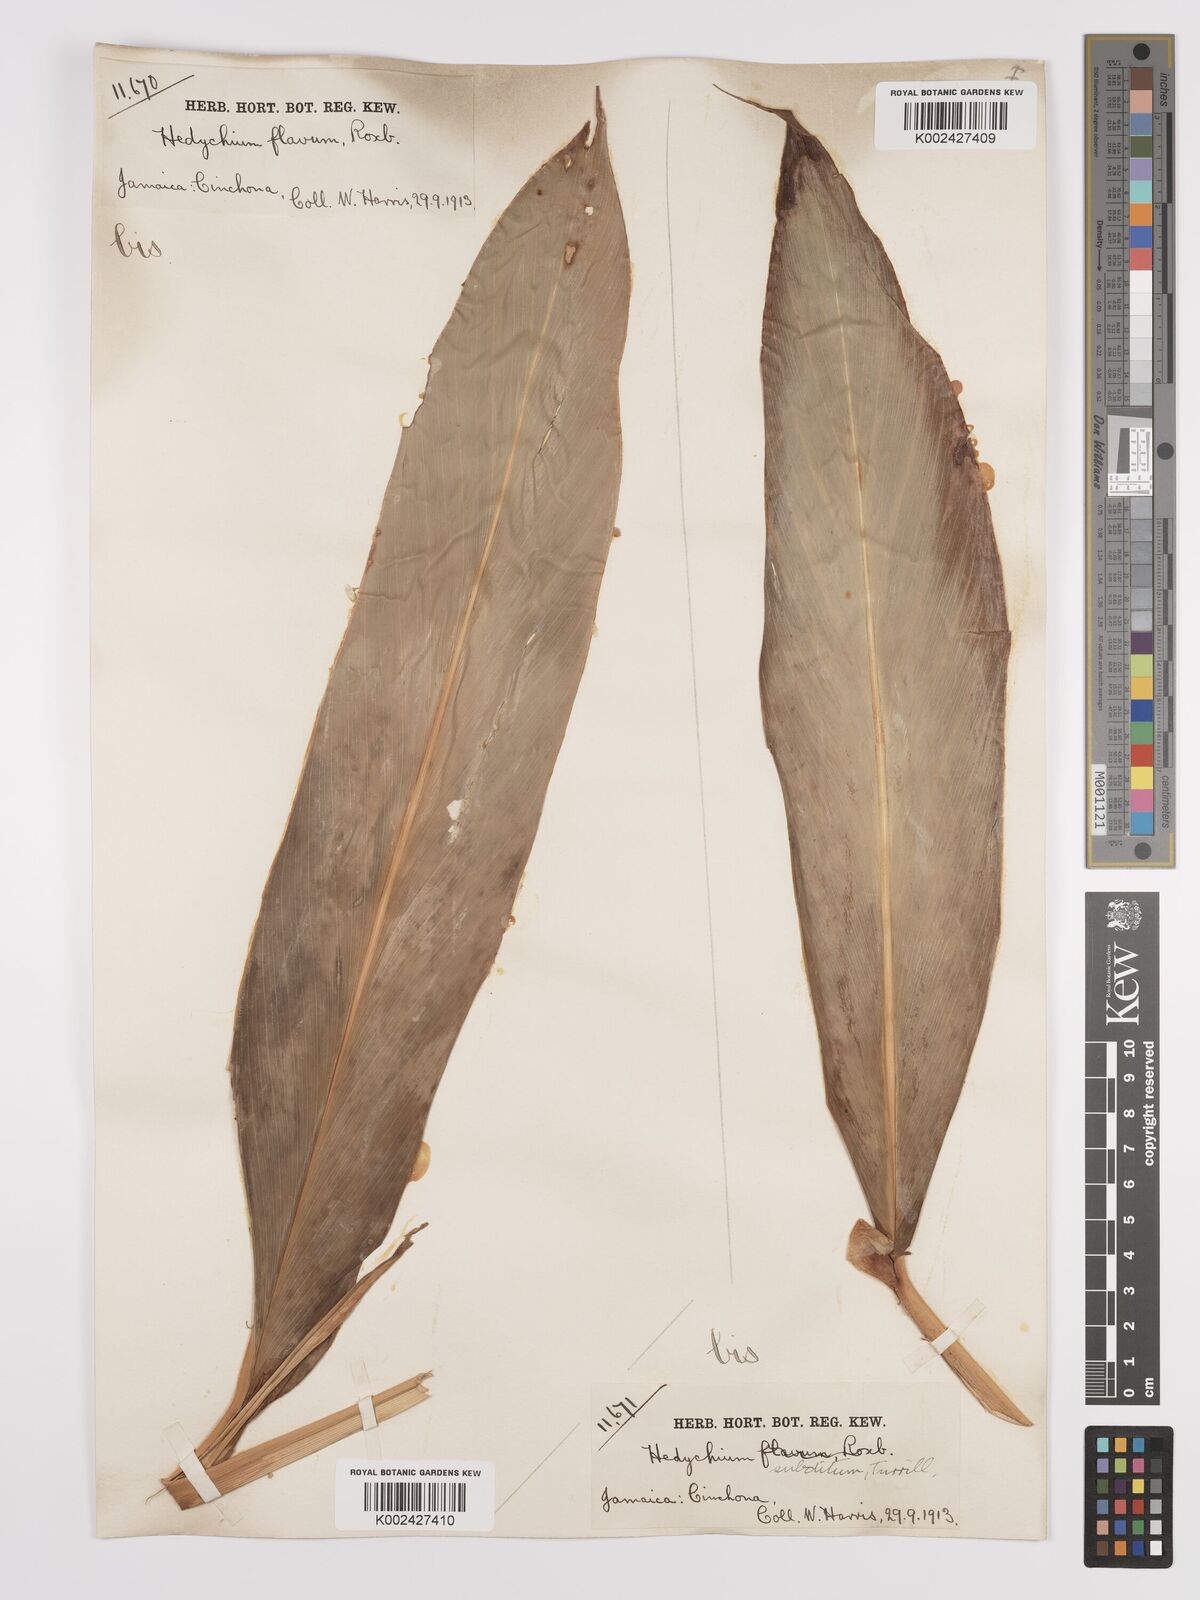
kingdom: Plantae
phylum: Tracheophyta
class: Liliopsida
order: Zingiberales
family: Zingiberaceae
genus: Hedychium
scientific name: Hedychium flavescens
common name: Yellow ginger
